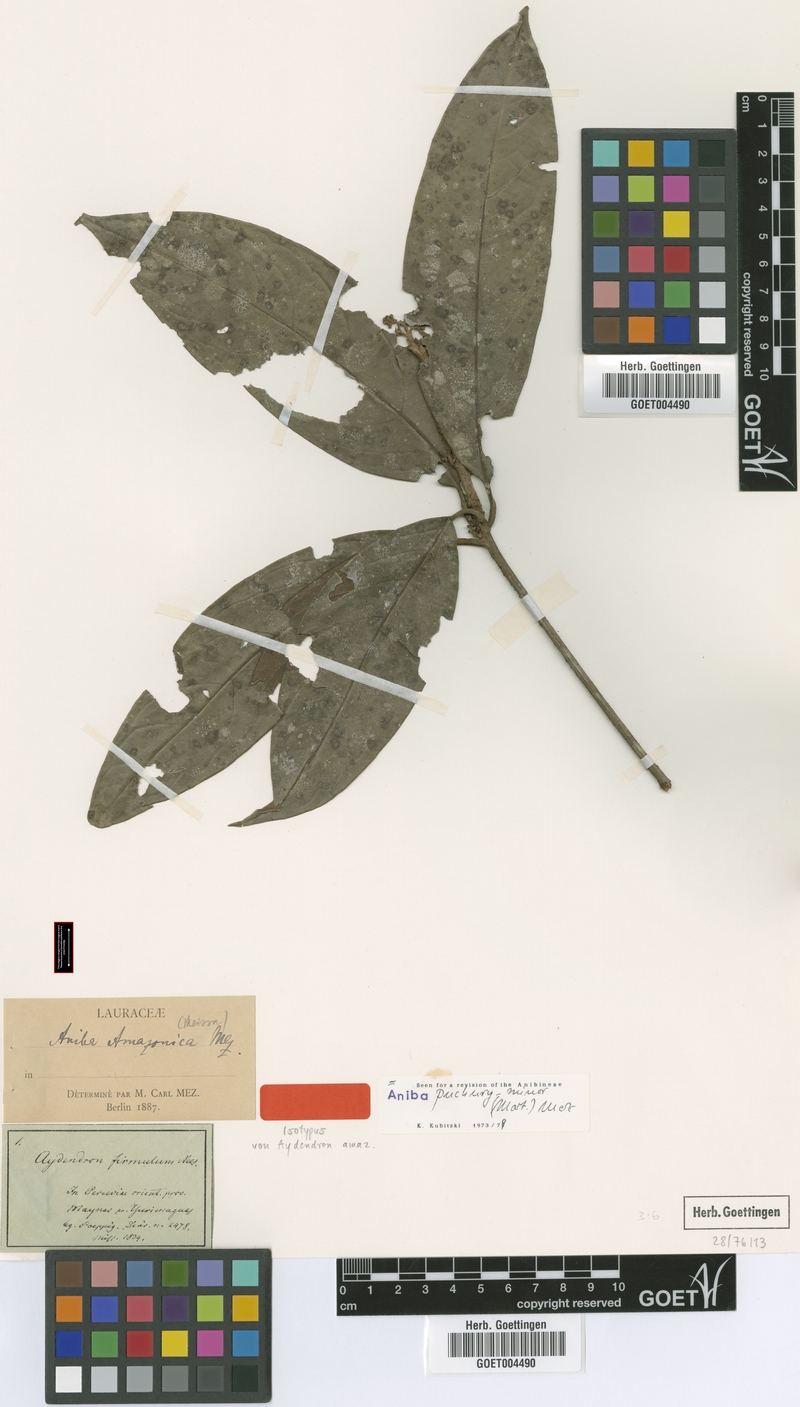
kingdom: Plantae
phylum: Tracheophyta
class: Magnoliopsida
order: Laurales
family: Lauraceae
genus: Aniba
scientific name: Aniba puchury-minor
